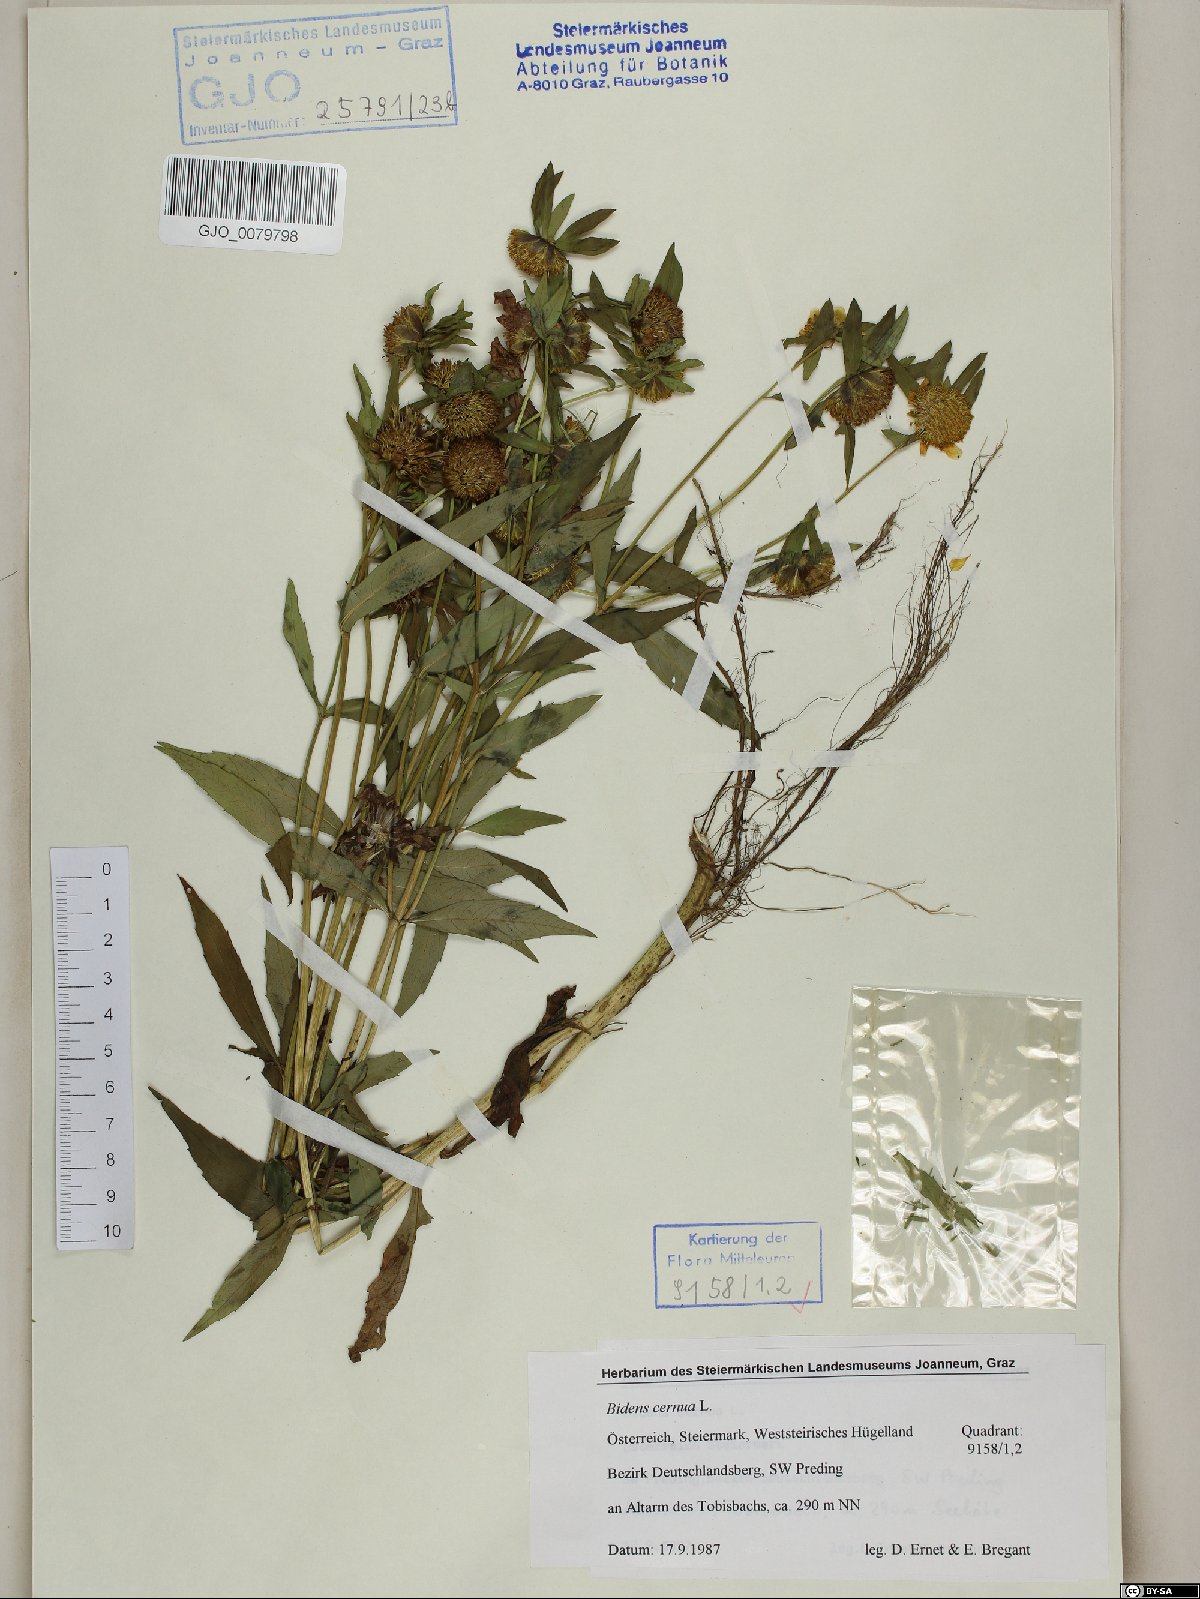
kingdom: Plantae
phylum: Tracheophyta
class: Magnoliopsida
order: Asterales
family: Asteraceae
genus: Bidens
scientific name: Bidens cernua
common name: Nodding bur-marigold
